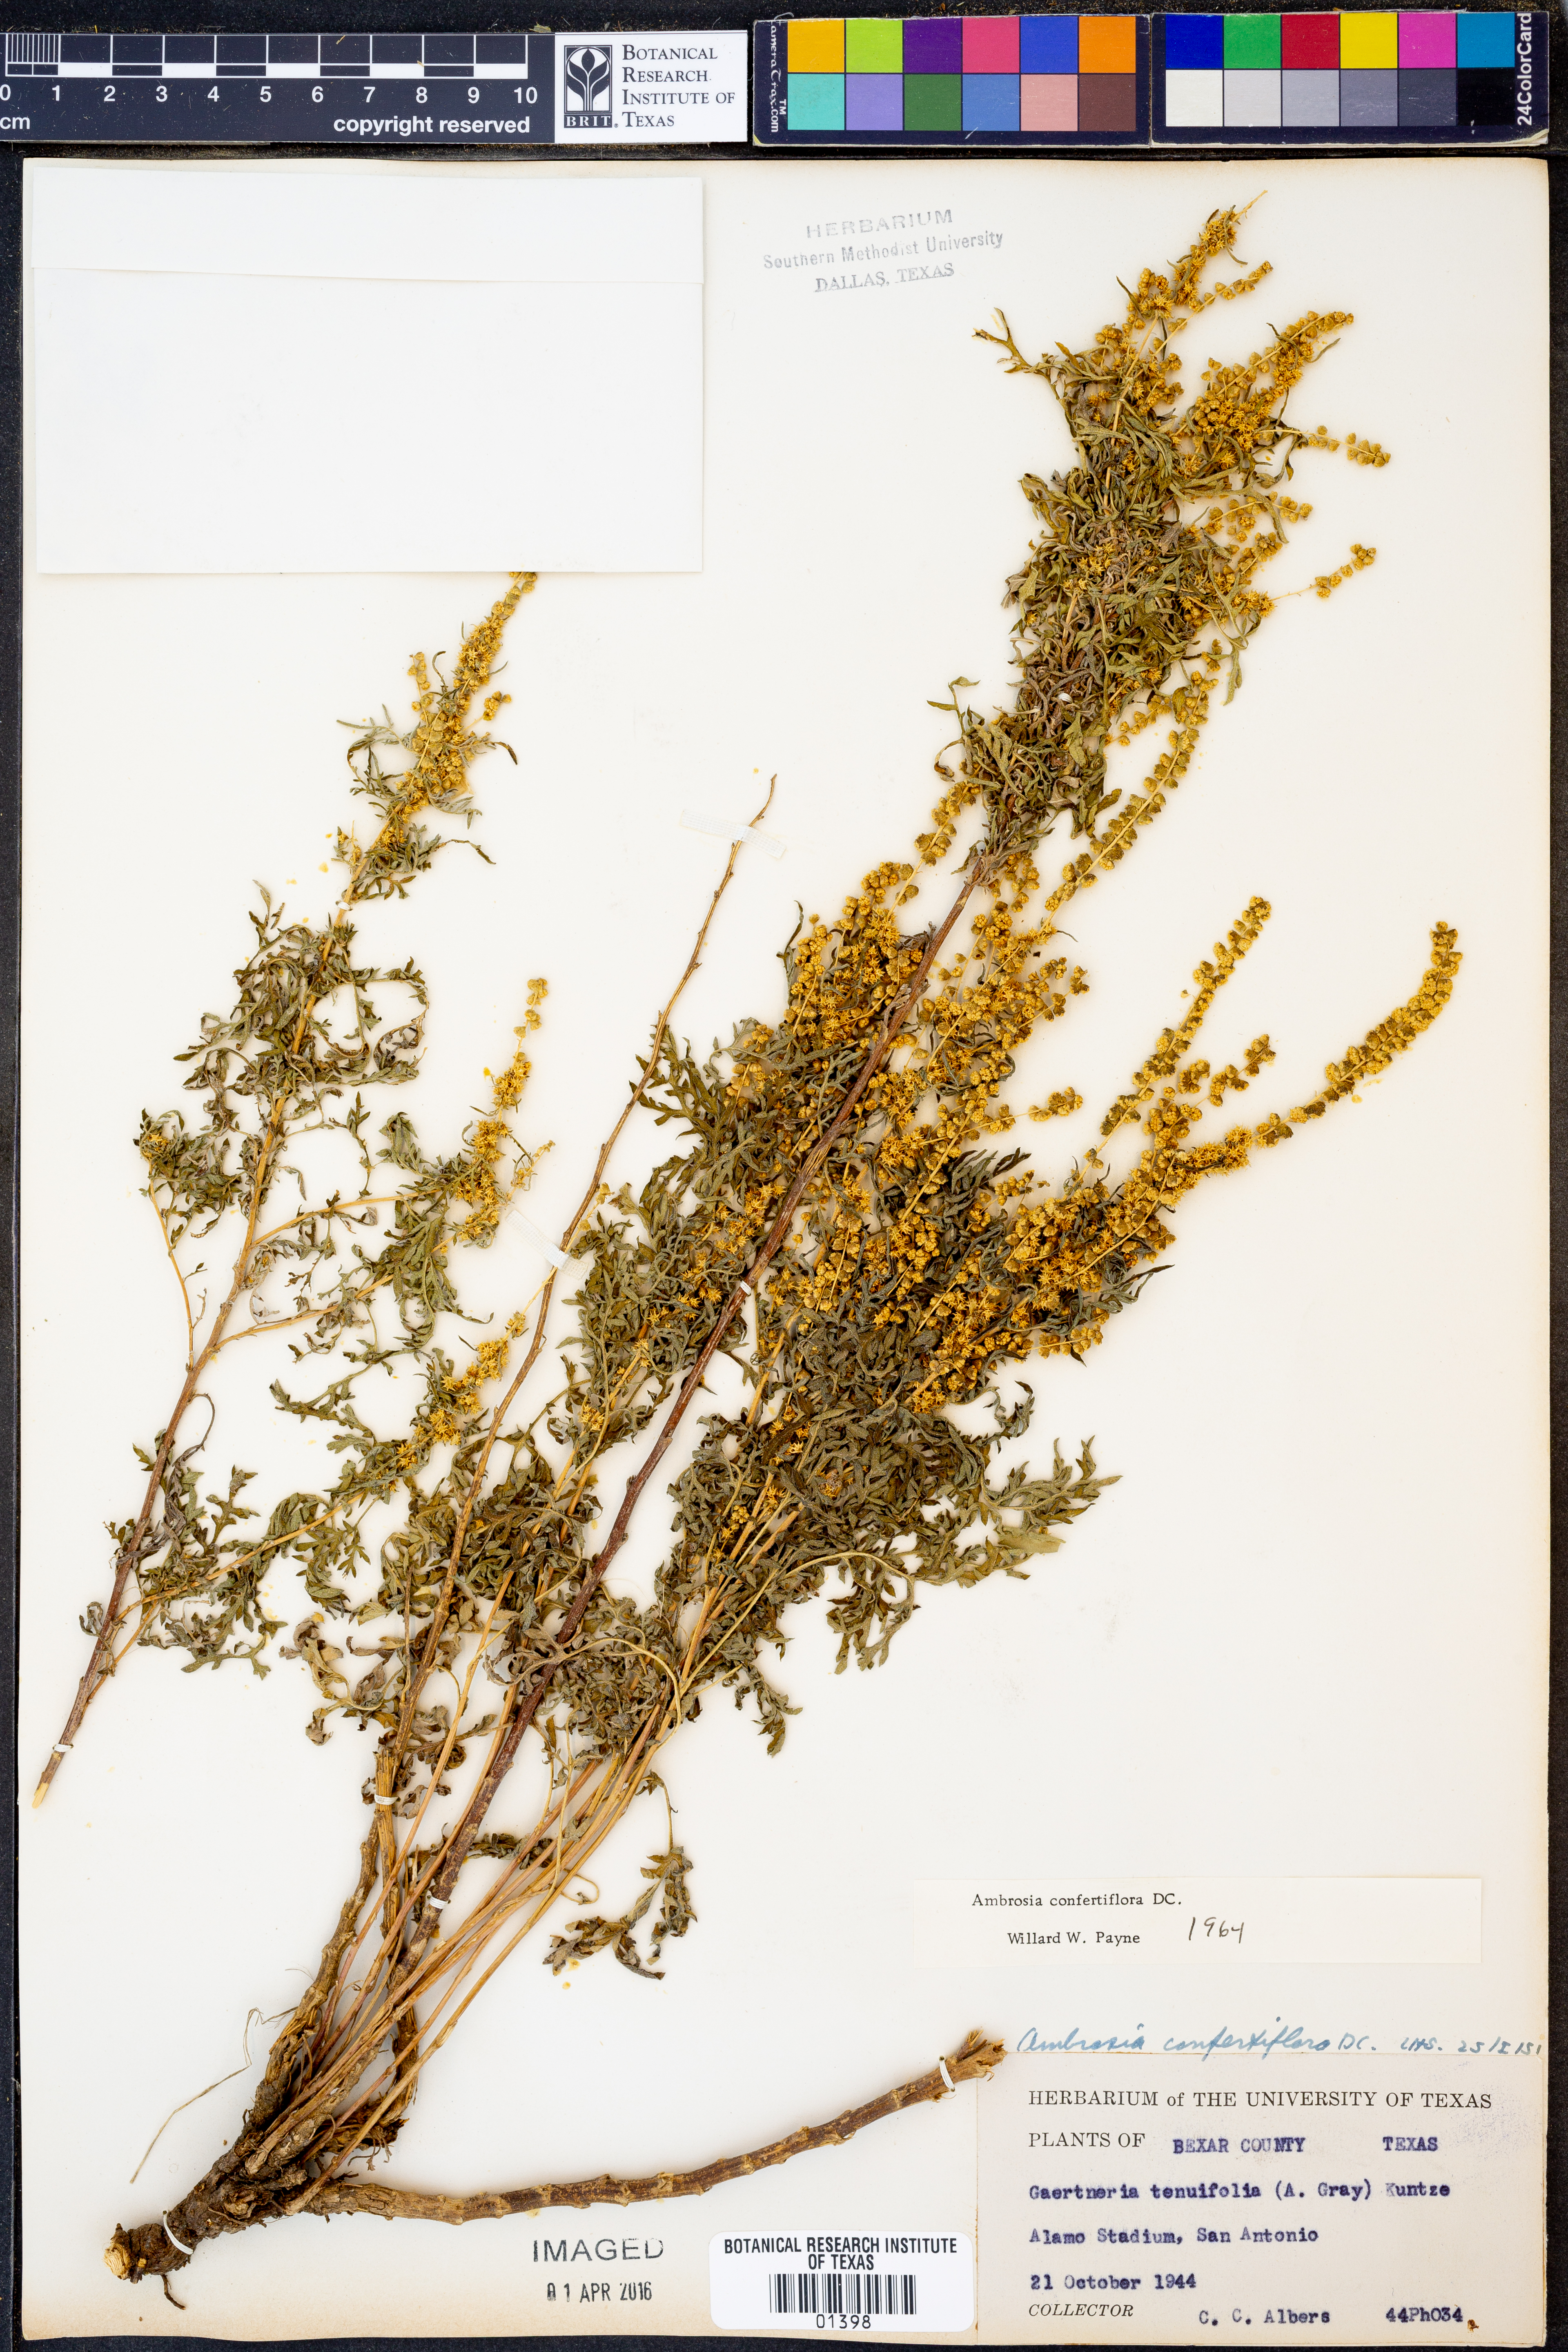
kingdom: Plantae
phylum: Tracheophyta
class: Magnoliopsida
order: Asterales
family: Asteraceae
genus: Ambrosia
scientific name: Ambrosia confertiflora
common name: Bur ragweed
